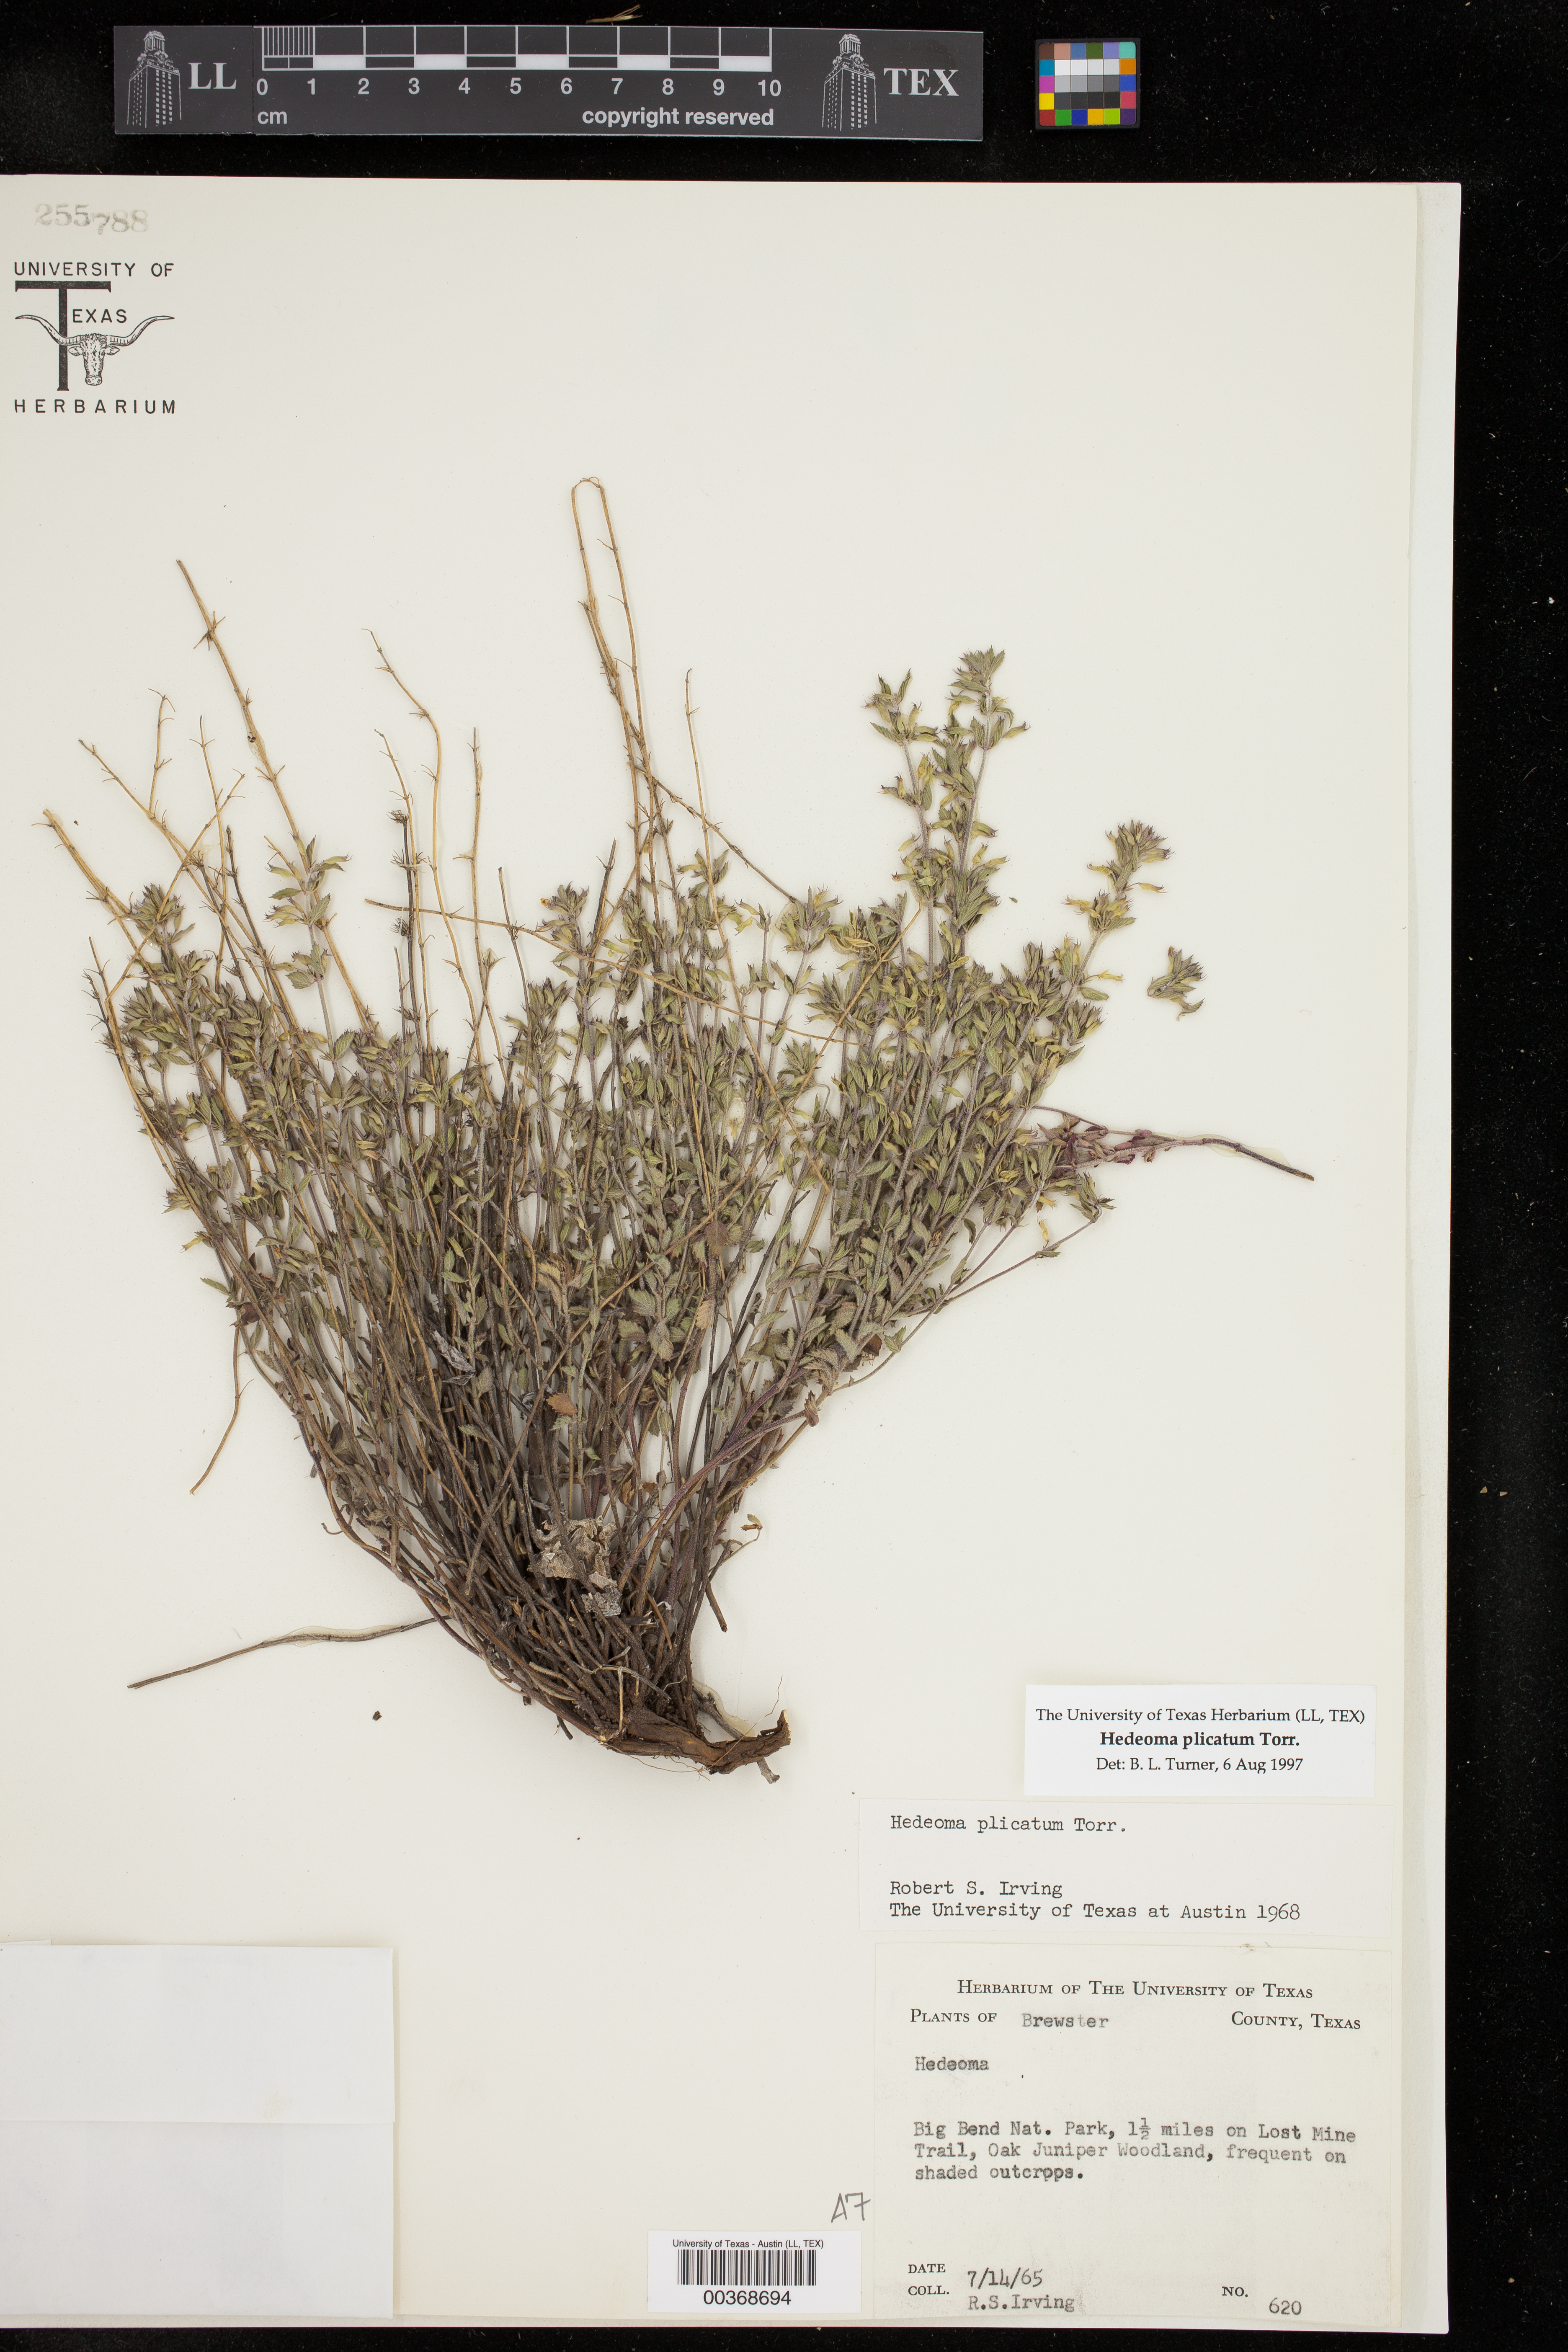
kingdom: Plantae
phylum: Tracheophyta
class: Magnoliopsida
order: Lamiales
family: Lamiaceae
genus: Hedeoma
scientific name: Hedeoma plicata
